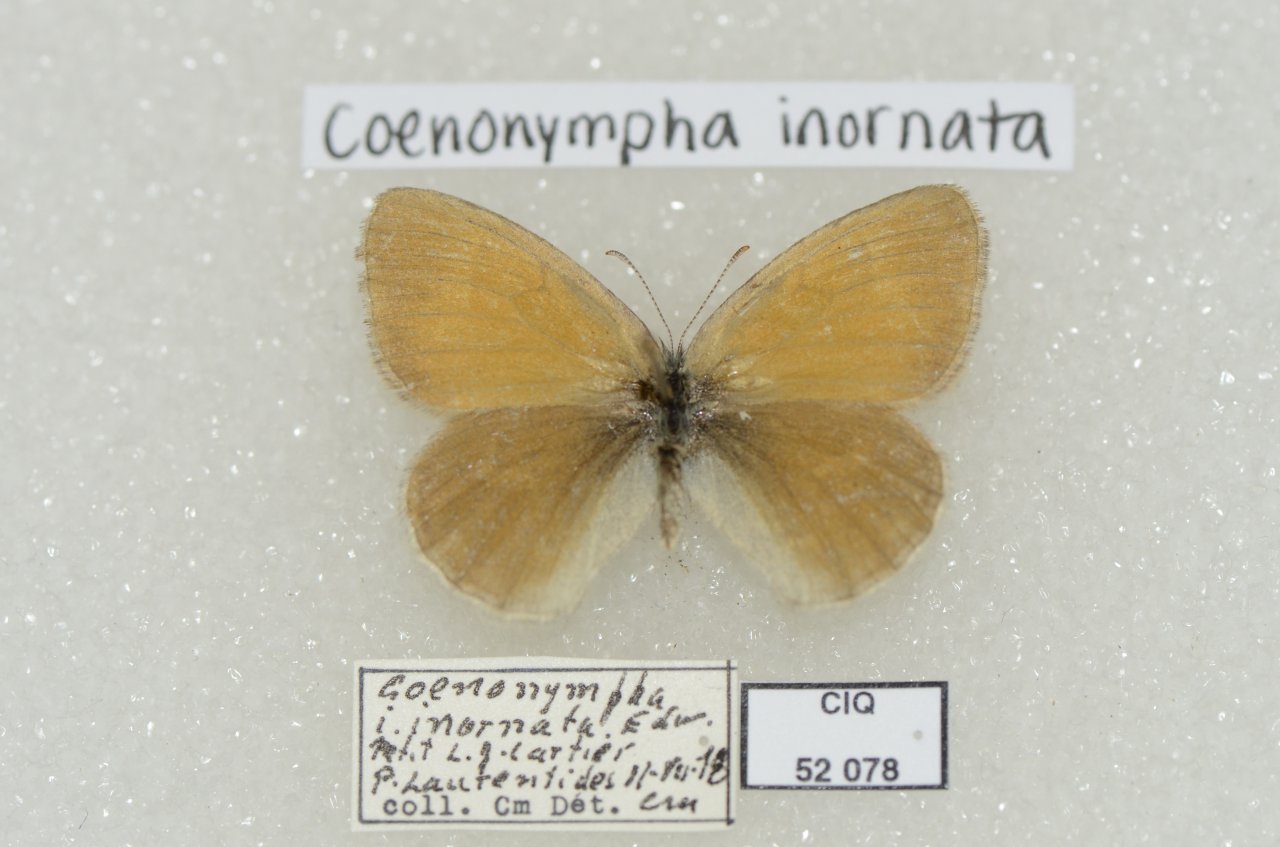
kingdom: Animalia
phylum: Arthropoda
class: Insecta
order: Lepidoptera
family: Nymphalidae
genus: Coenonympha
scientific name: Coenonympha tullia
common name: Large Heath
